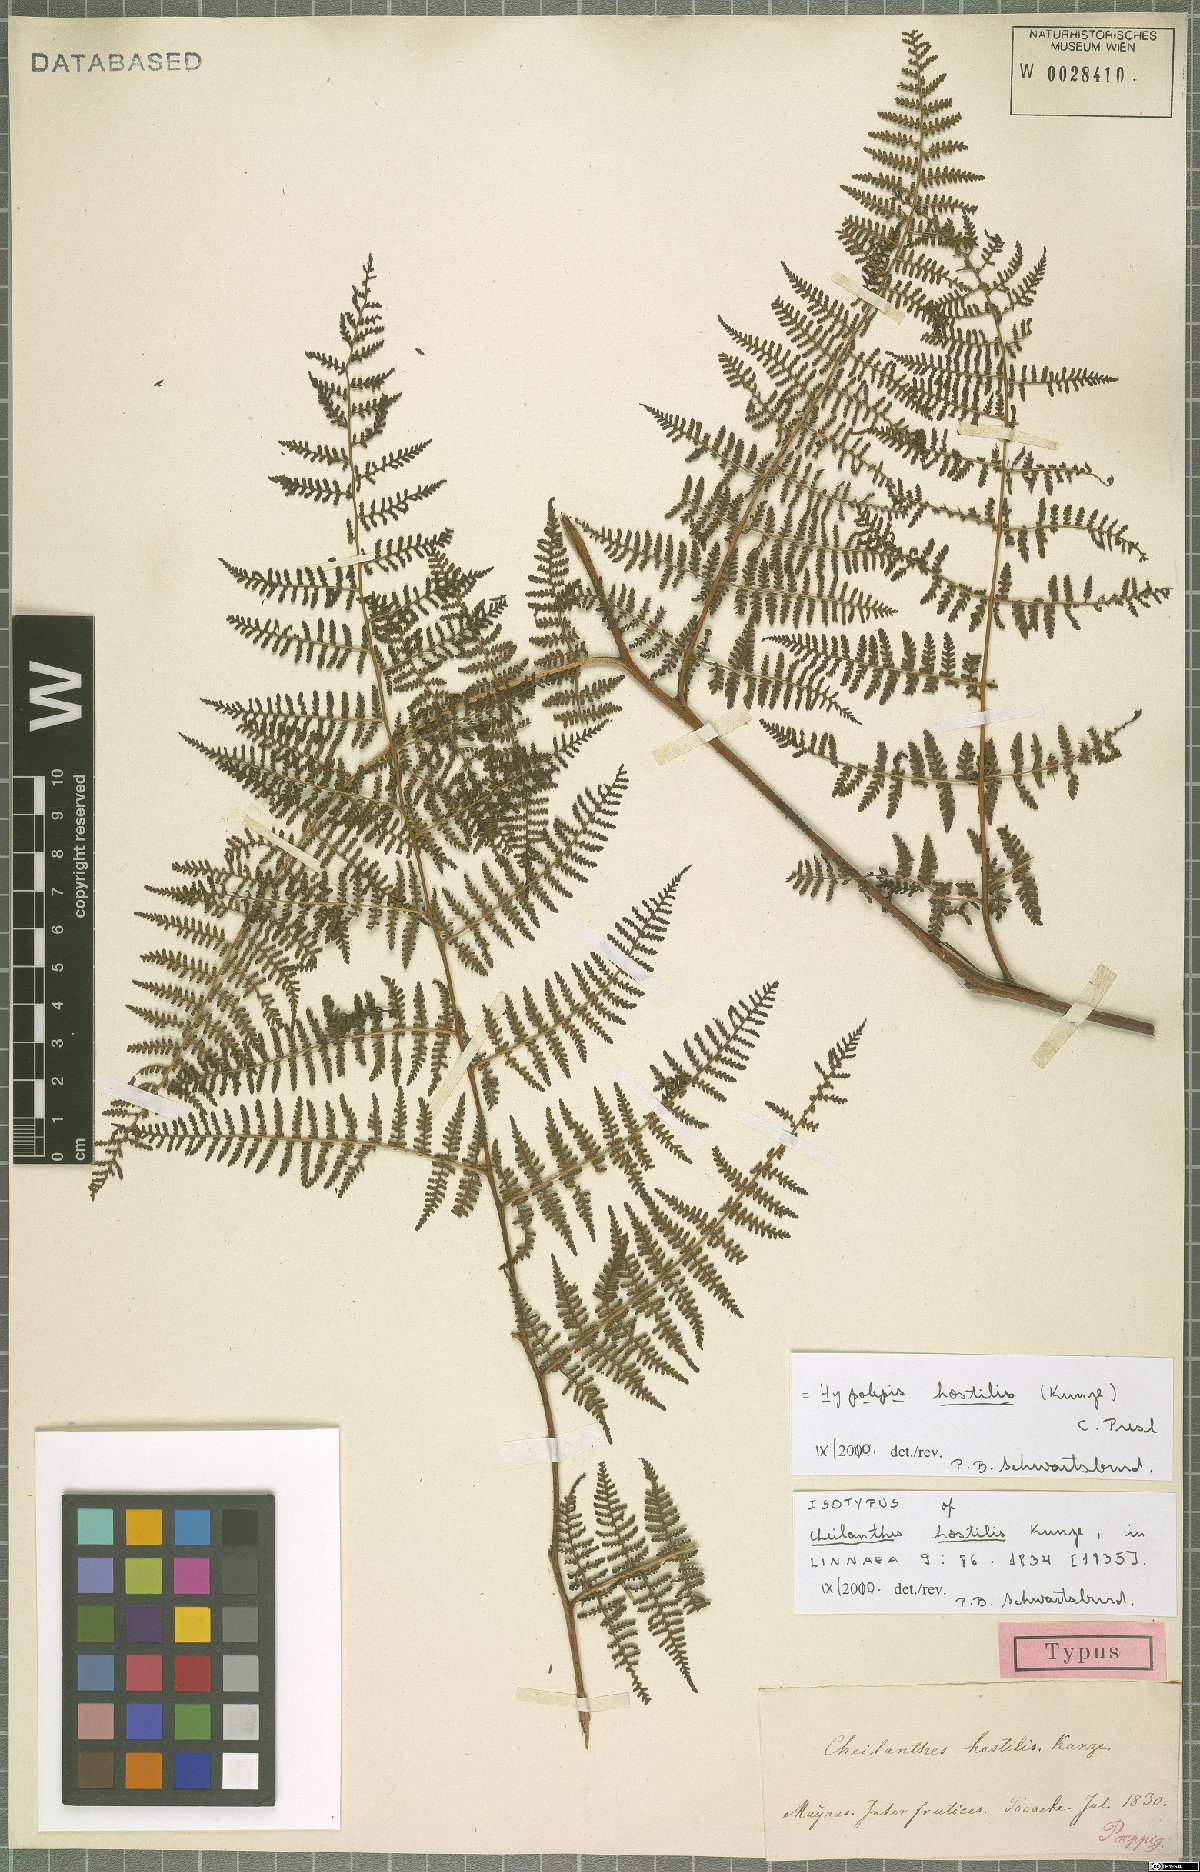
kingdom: Plantae
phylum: Tracheophyta
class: Polypodiopsida
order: Polypodiales
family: Dennstaedtiaceae
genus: Hypolepis
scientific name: Hypolepis hostilis
